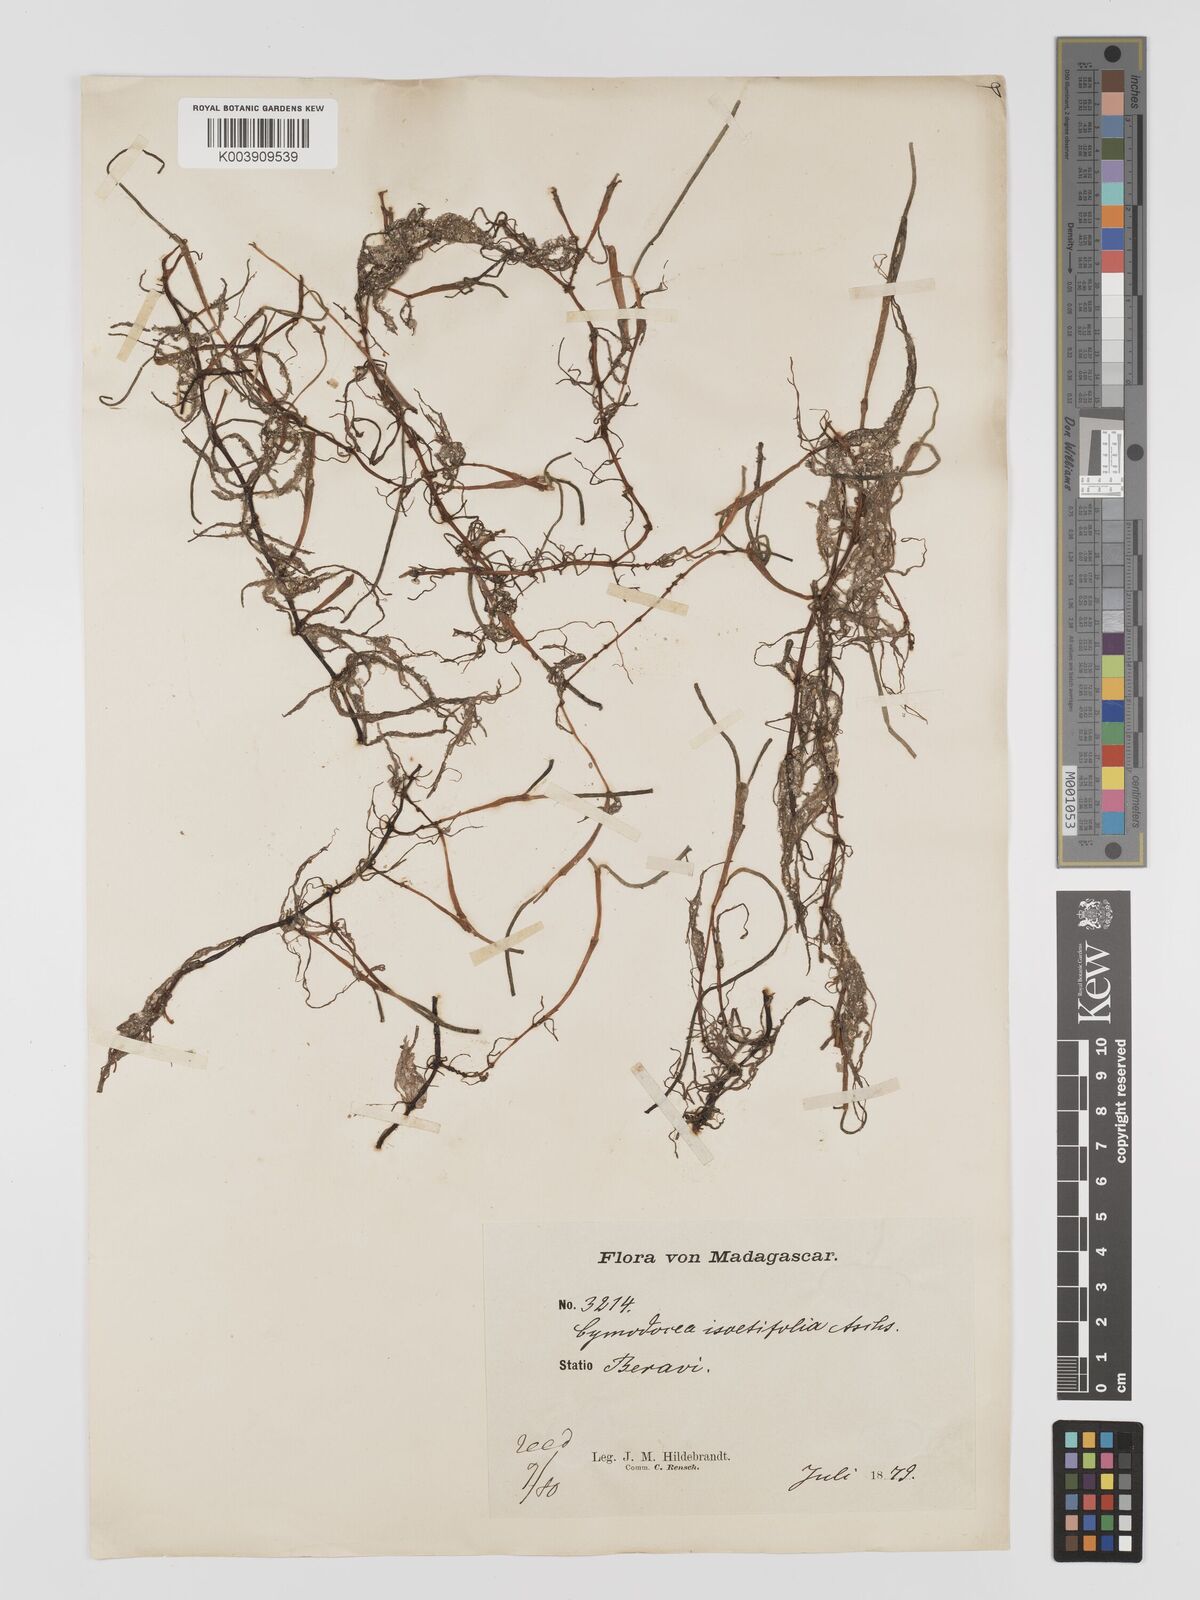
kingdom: Plantae
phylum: Tracheophyta
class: Liliopsida
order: Alismatales
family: Cymodoceaceae
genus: Syringodium
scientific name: Syringodium isoetifolium
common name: Species code: si
